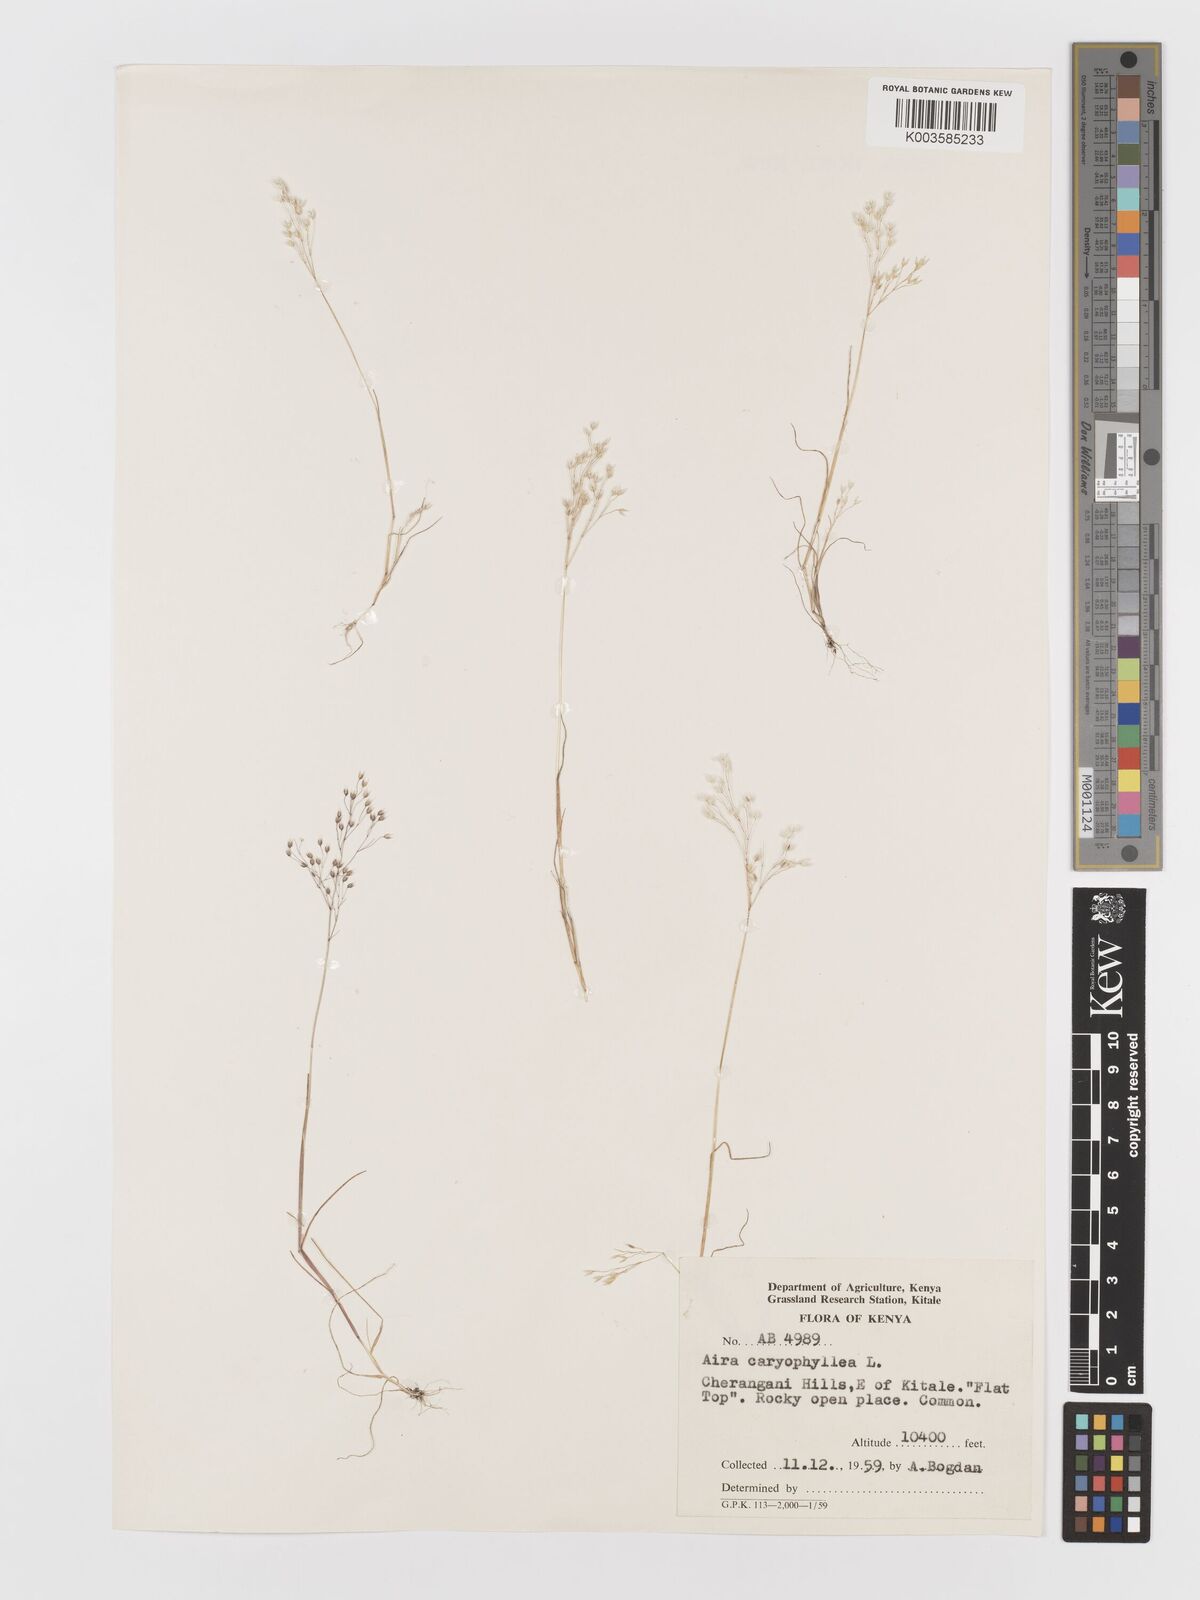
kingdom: Plantae
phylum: Tracheophyta
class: Liliopsida
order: Poales
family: Poaceae
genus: Aira
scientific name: Aira caryophyllea
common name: Silver hairgrass
